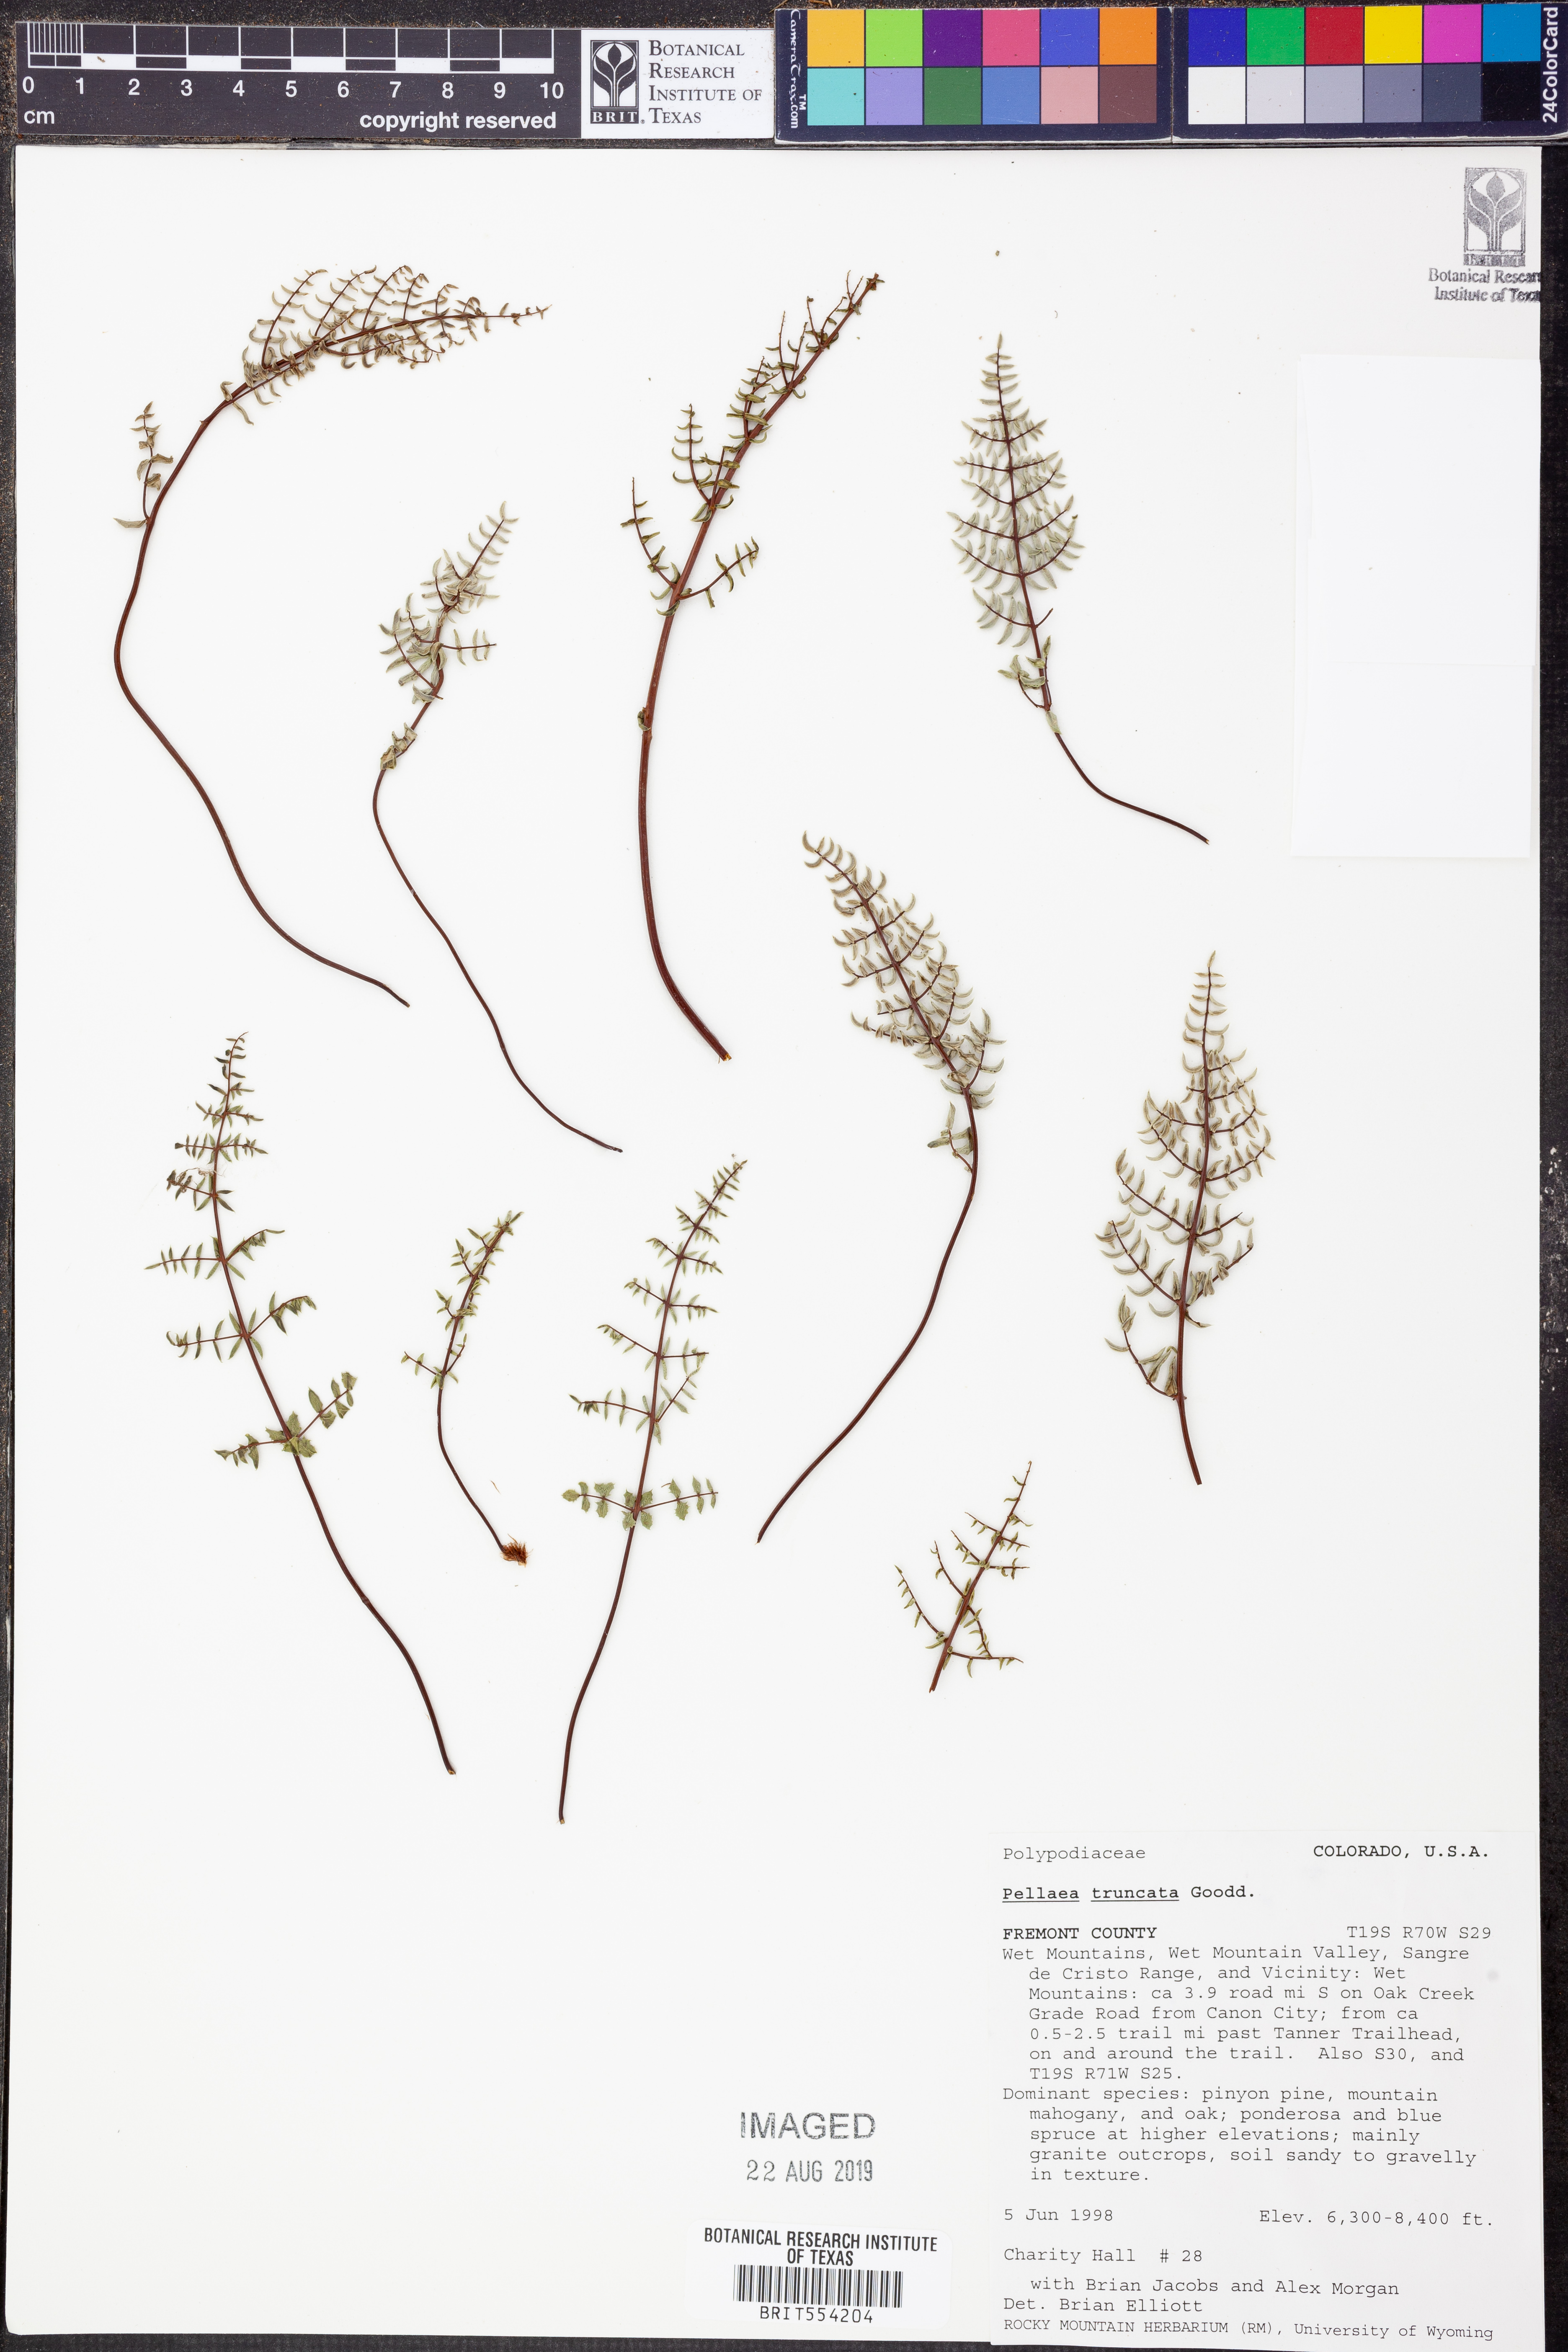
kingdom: Plantae
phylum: Tracheophyta
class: Polypodiopsida
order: Polypodiales
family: Pteridaceae
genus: Pellaea
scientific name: Pellaea truncata
